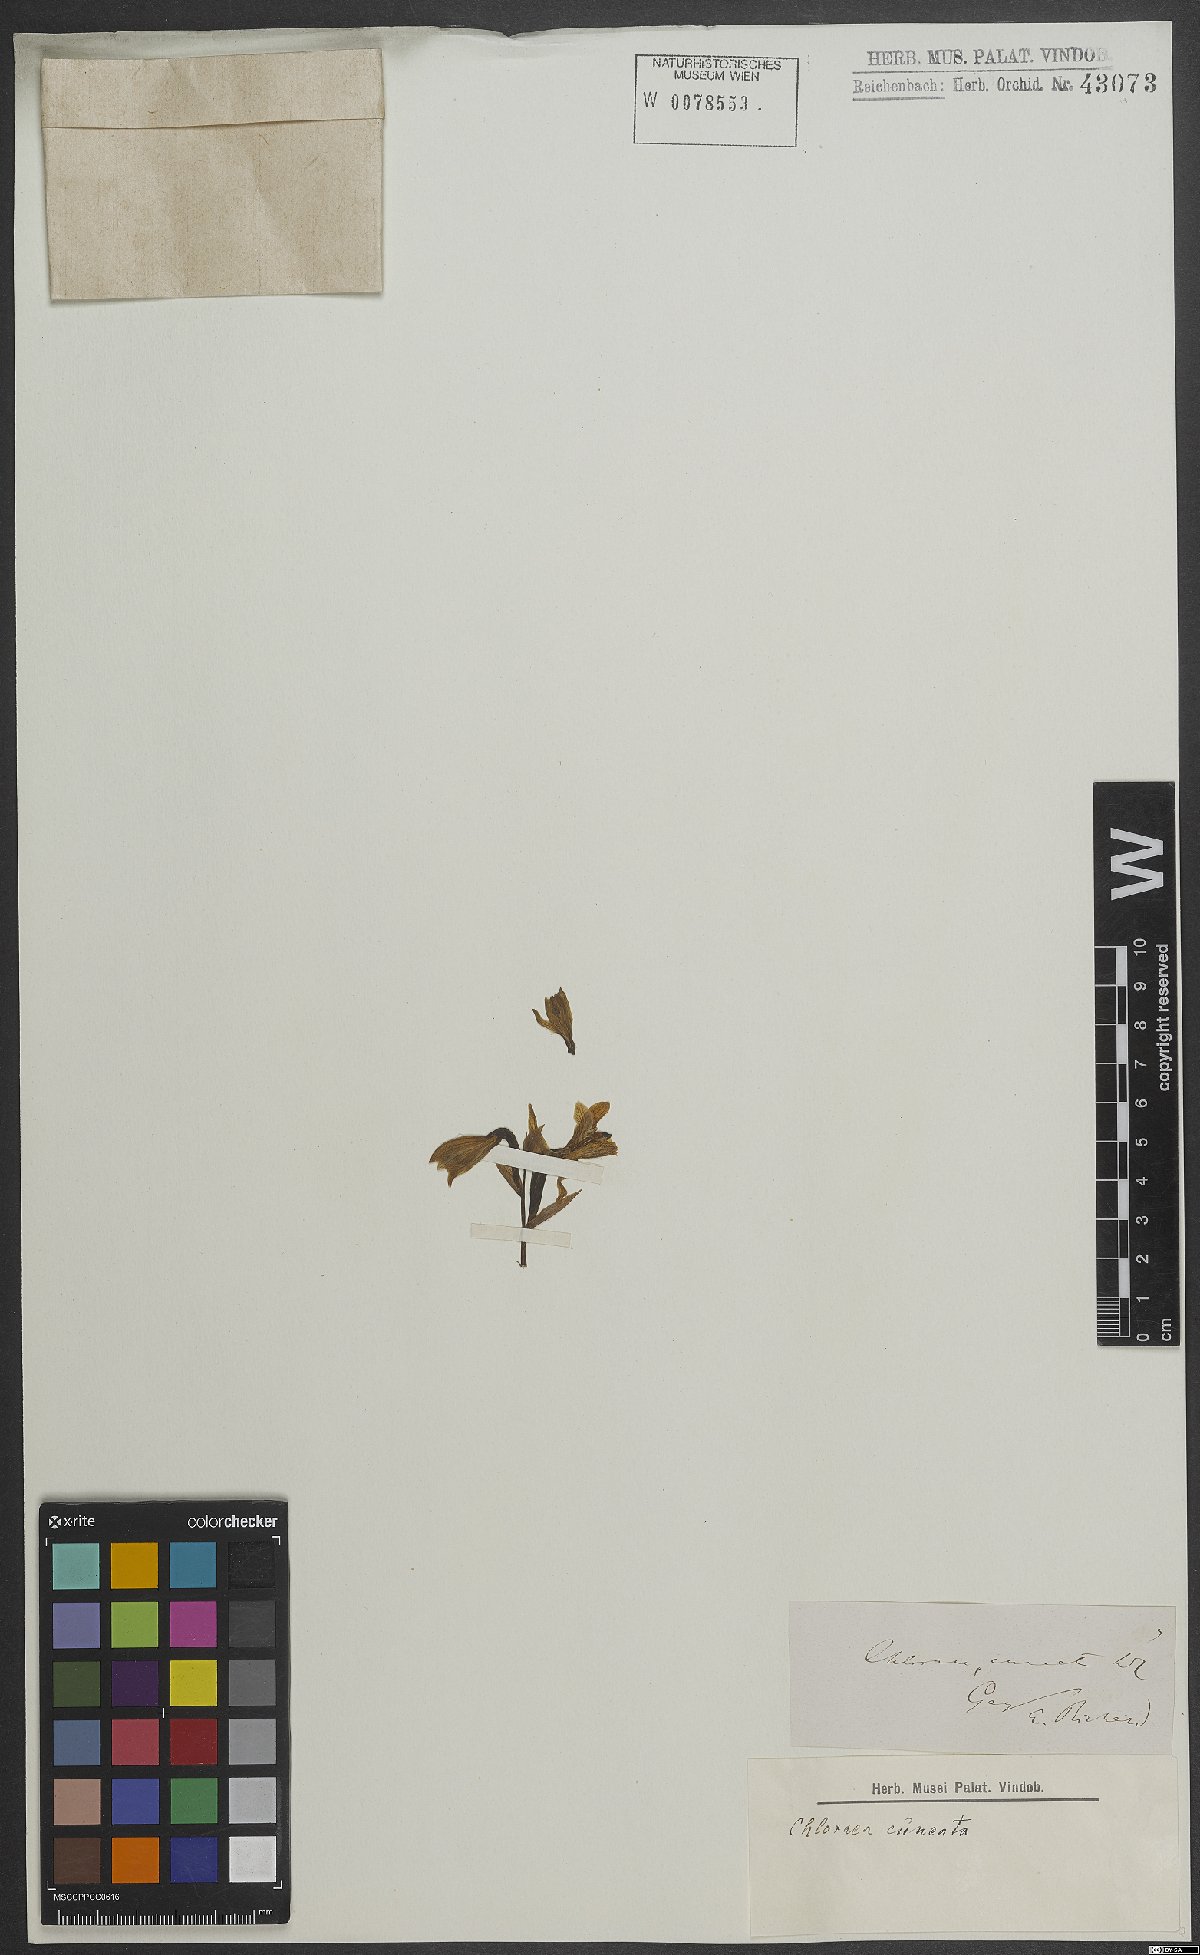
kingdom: Plantae
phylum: Tracheophyta
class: Liliopsida
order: Asparagales
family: Orchidaceae
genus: Chloraea
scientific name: Chloraea
